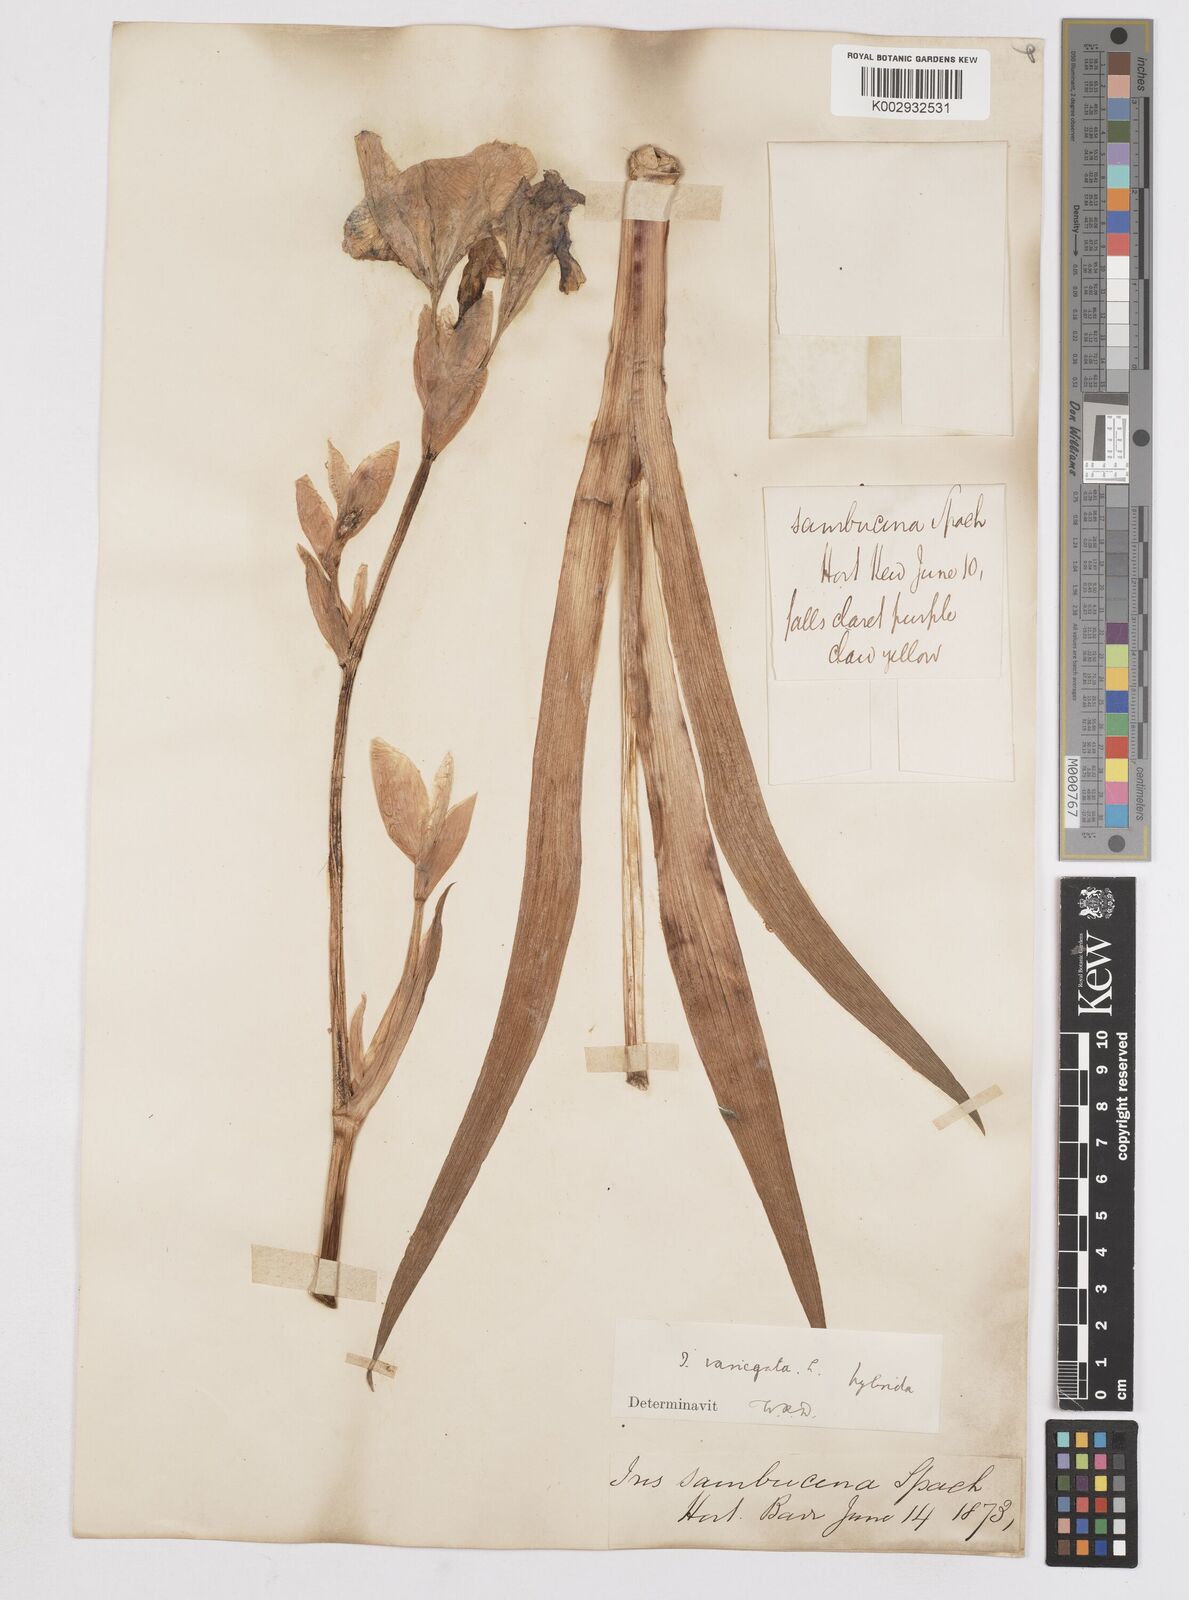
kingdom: Plantae
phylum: Tracheophyta
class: Liliopsida
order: Asparagales
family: Iridaceae
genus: Iris
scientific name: Iris variegata
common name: Hungarian iris
